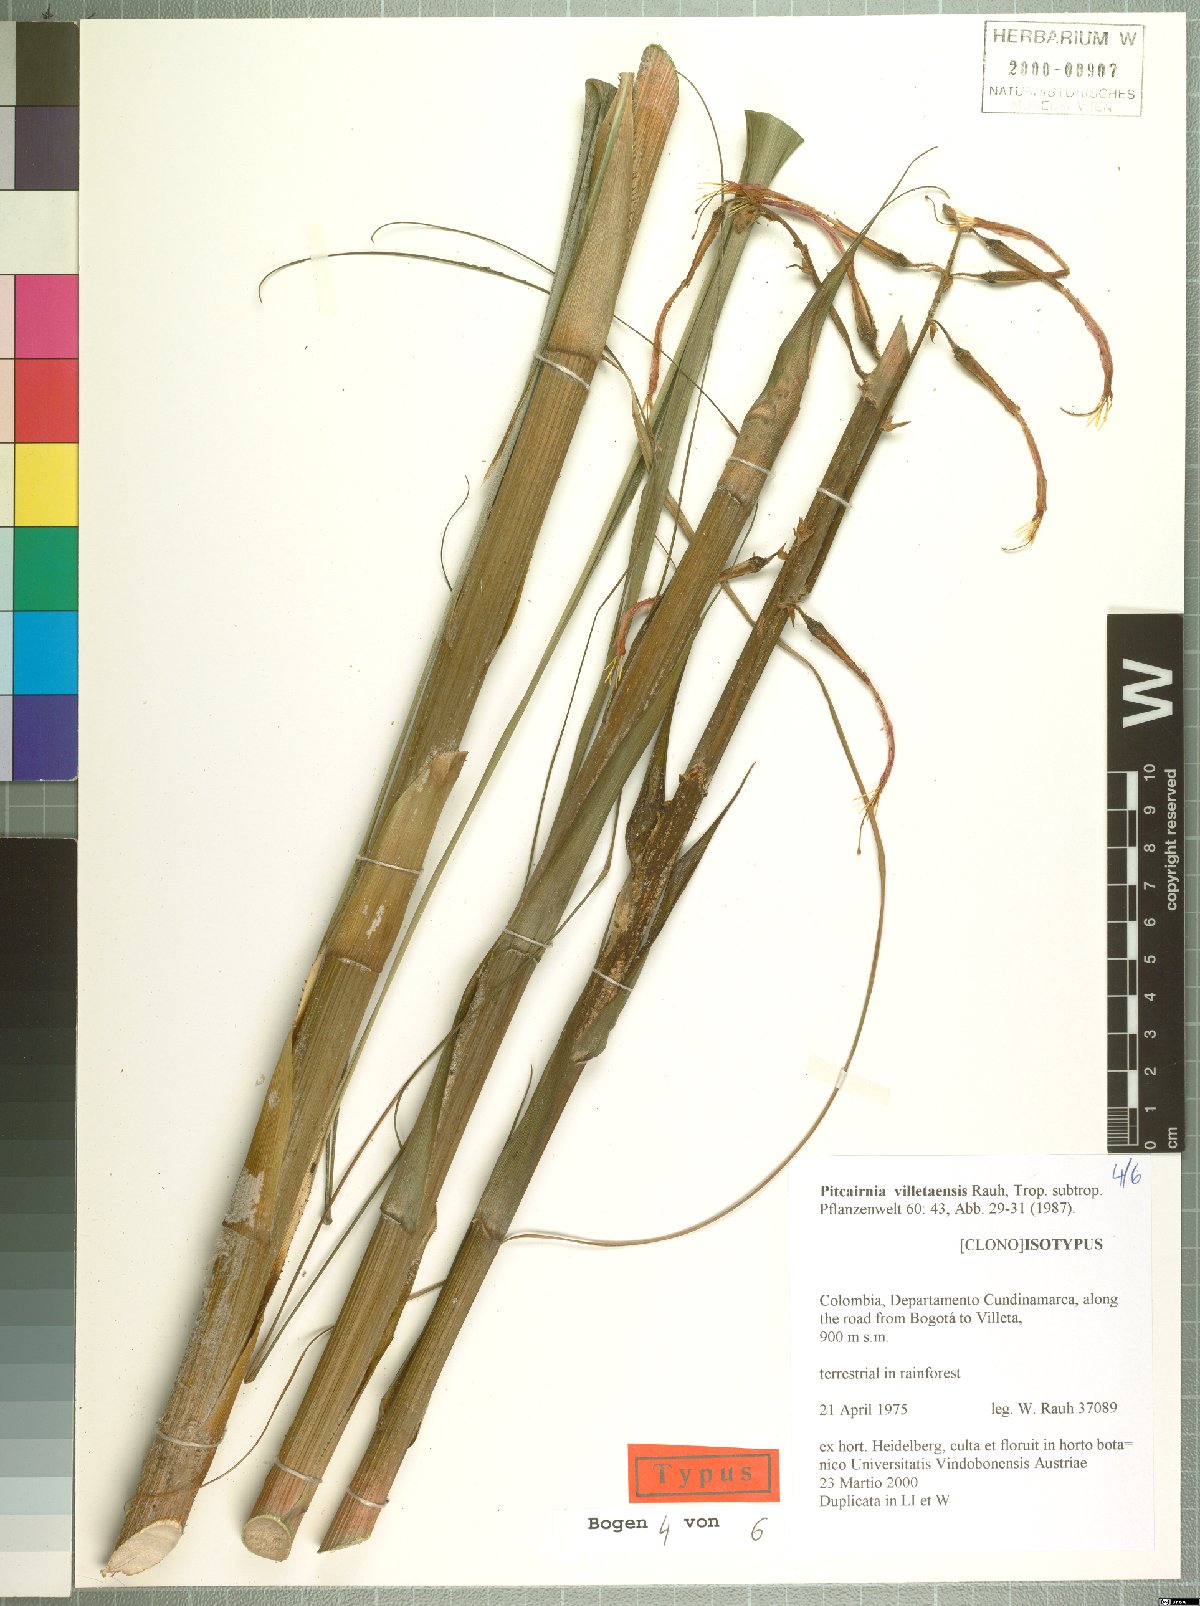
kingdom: Plantae
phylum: Tracheophyta
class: Liliopsida
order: Poales
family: Bromeliaceae
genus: Pitcairnia
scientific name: Pitcairnia villetaensis
